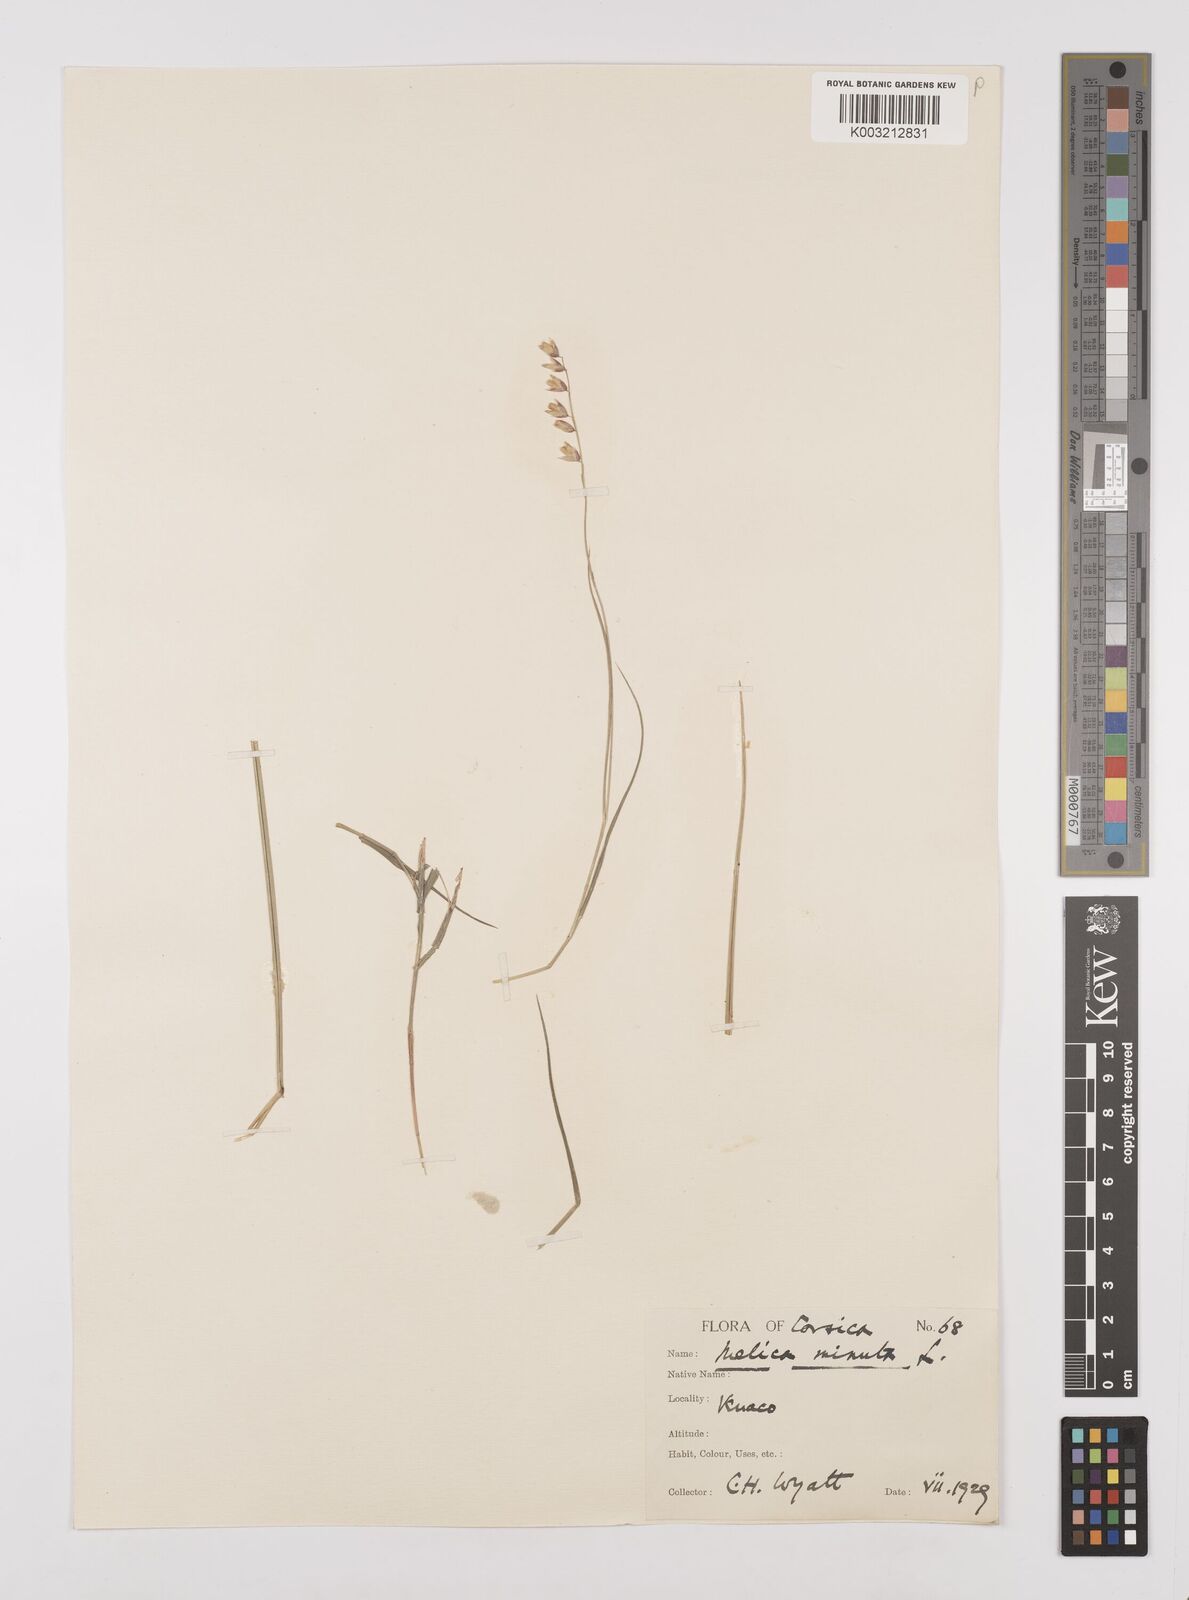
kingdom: Plantae
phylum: Tracheophyta
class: Liliopsida
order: Poales
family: Poaceae
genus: Melica
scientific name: Melica minuta
